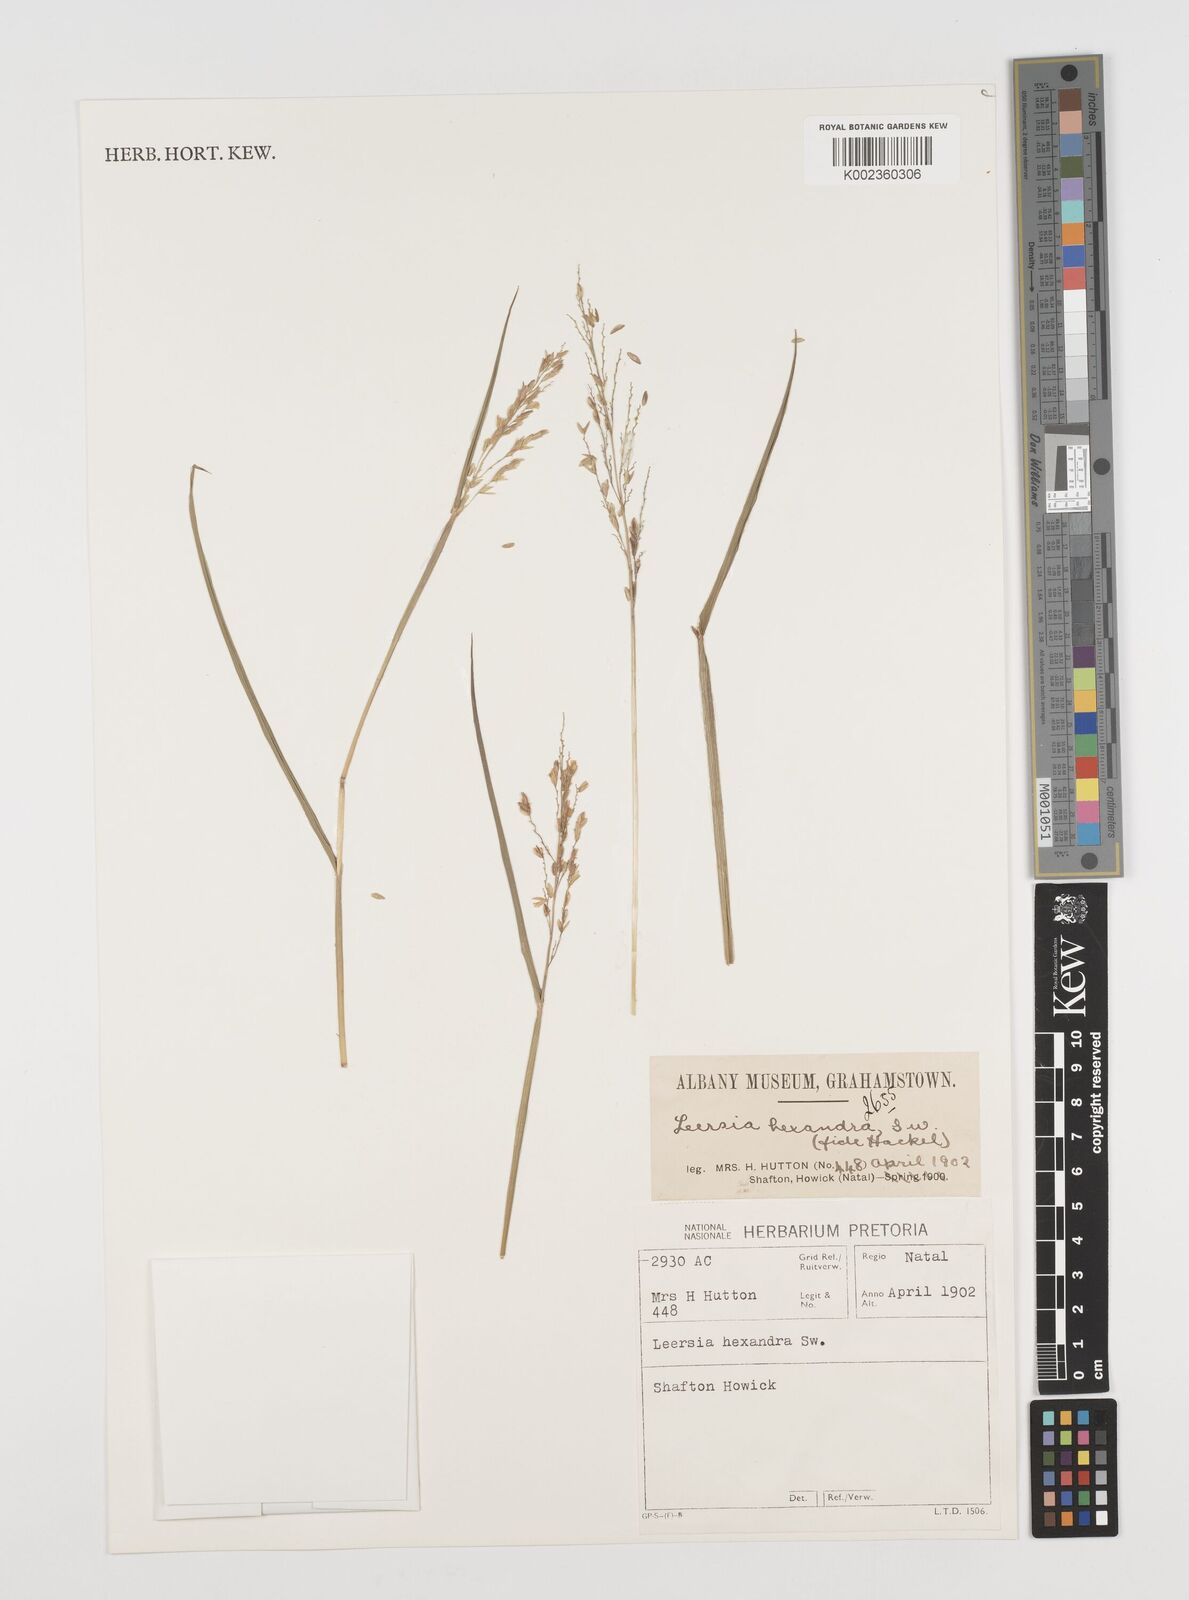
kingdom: Plantae
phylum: Tracheophyta
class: Liliopsida
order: Poales
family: Poaceae
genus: Leersia
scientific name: Leersia hexandra
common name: Southern cut grass
